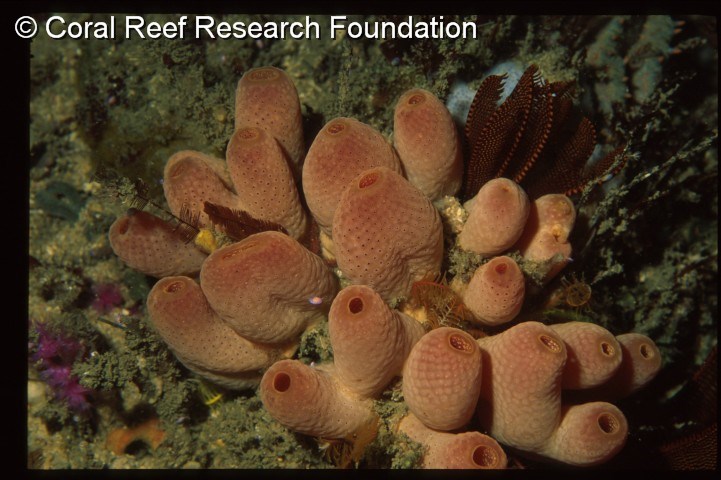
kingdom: Animalia
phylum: Chordata
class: Ascidiacea
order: Aplousobranchia
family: Didemnidae
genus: Atriolum
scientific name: Atriolum marinense
